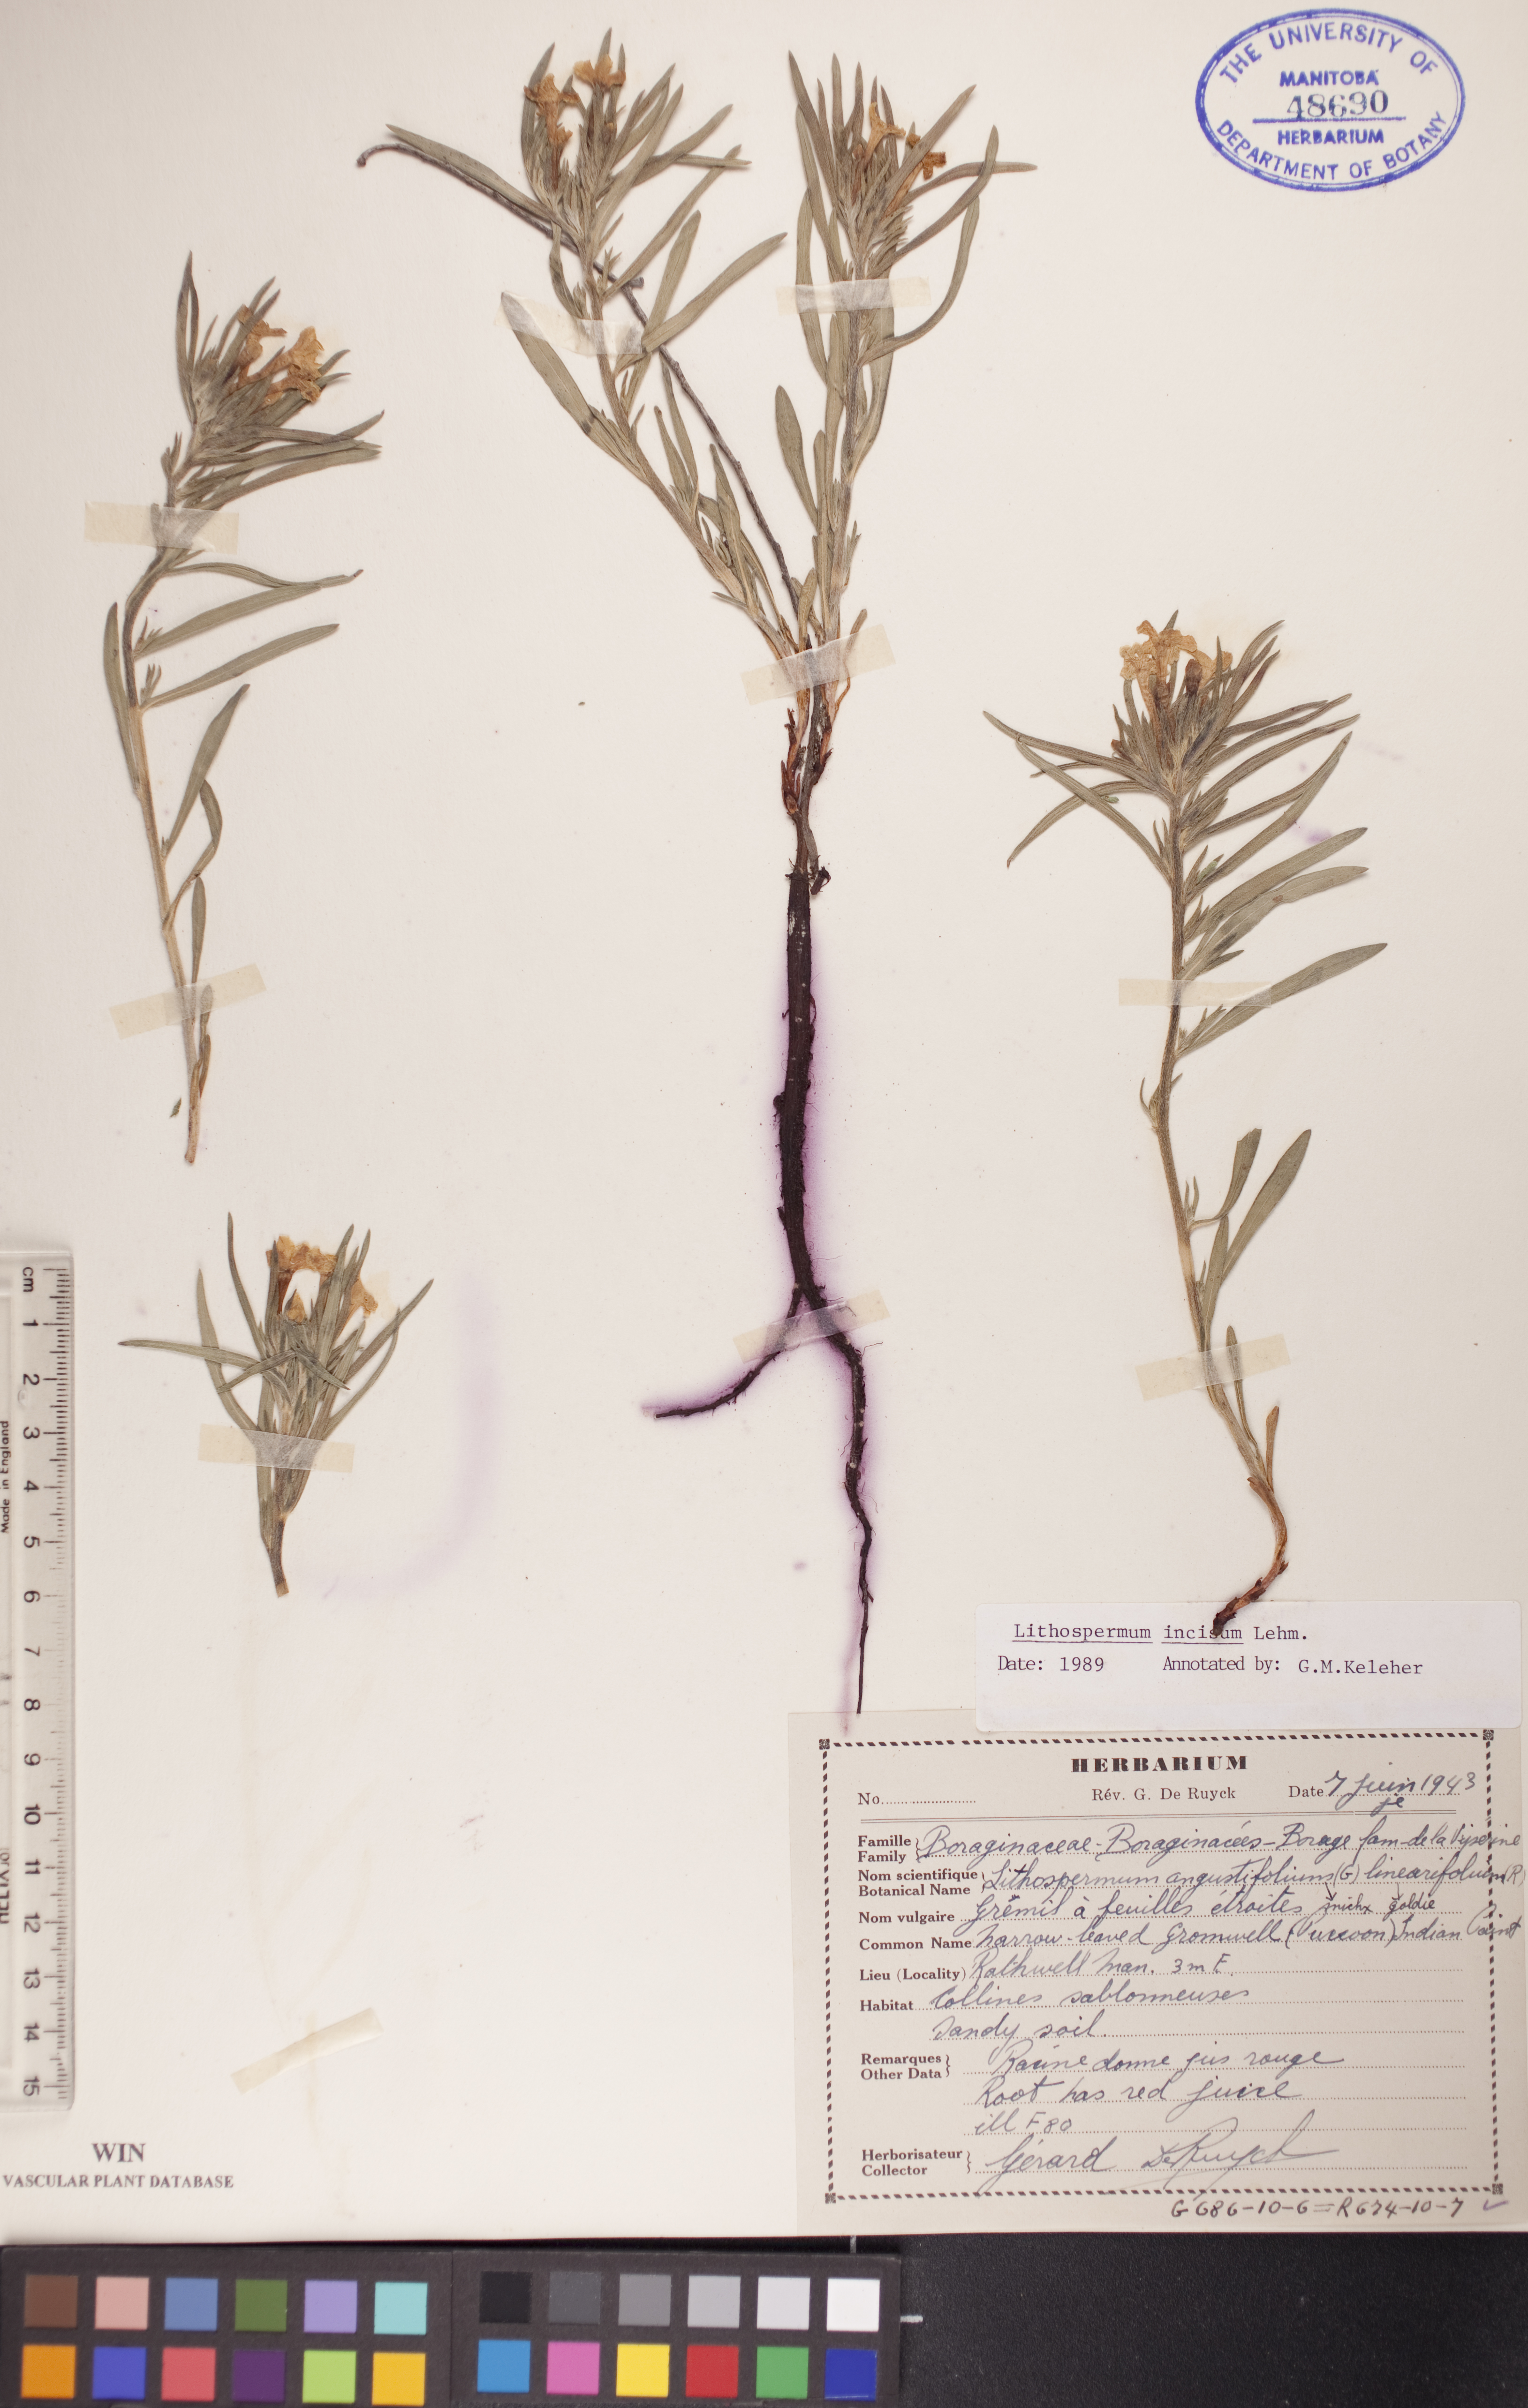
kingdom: Plantae
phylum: Tracheophyta
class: Magnoliopsida
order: Boraginales
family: Boraginaceae
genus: Lithospermum
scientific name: Lithospermum incisum
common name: Fringed gromwell
